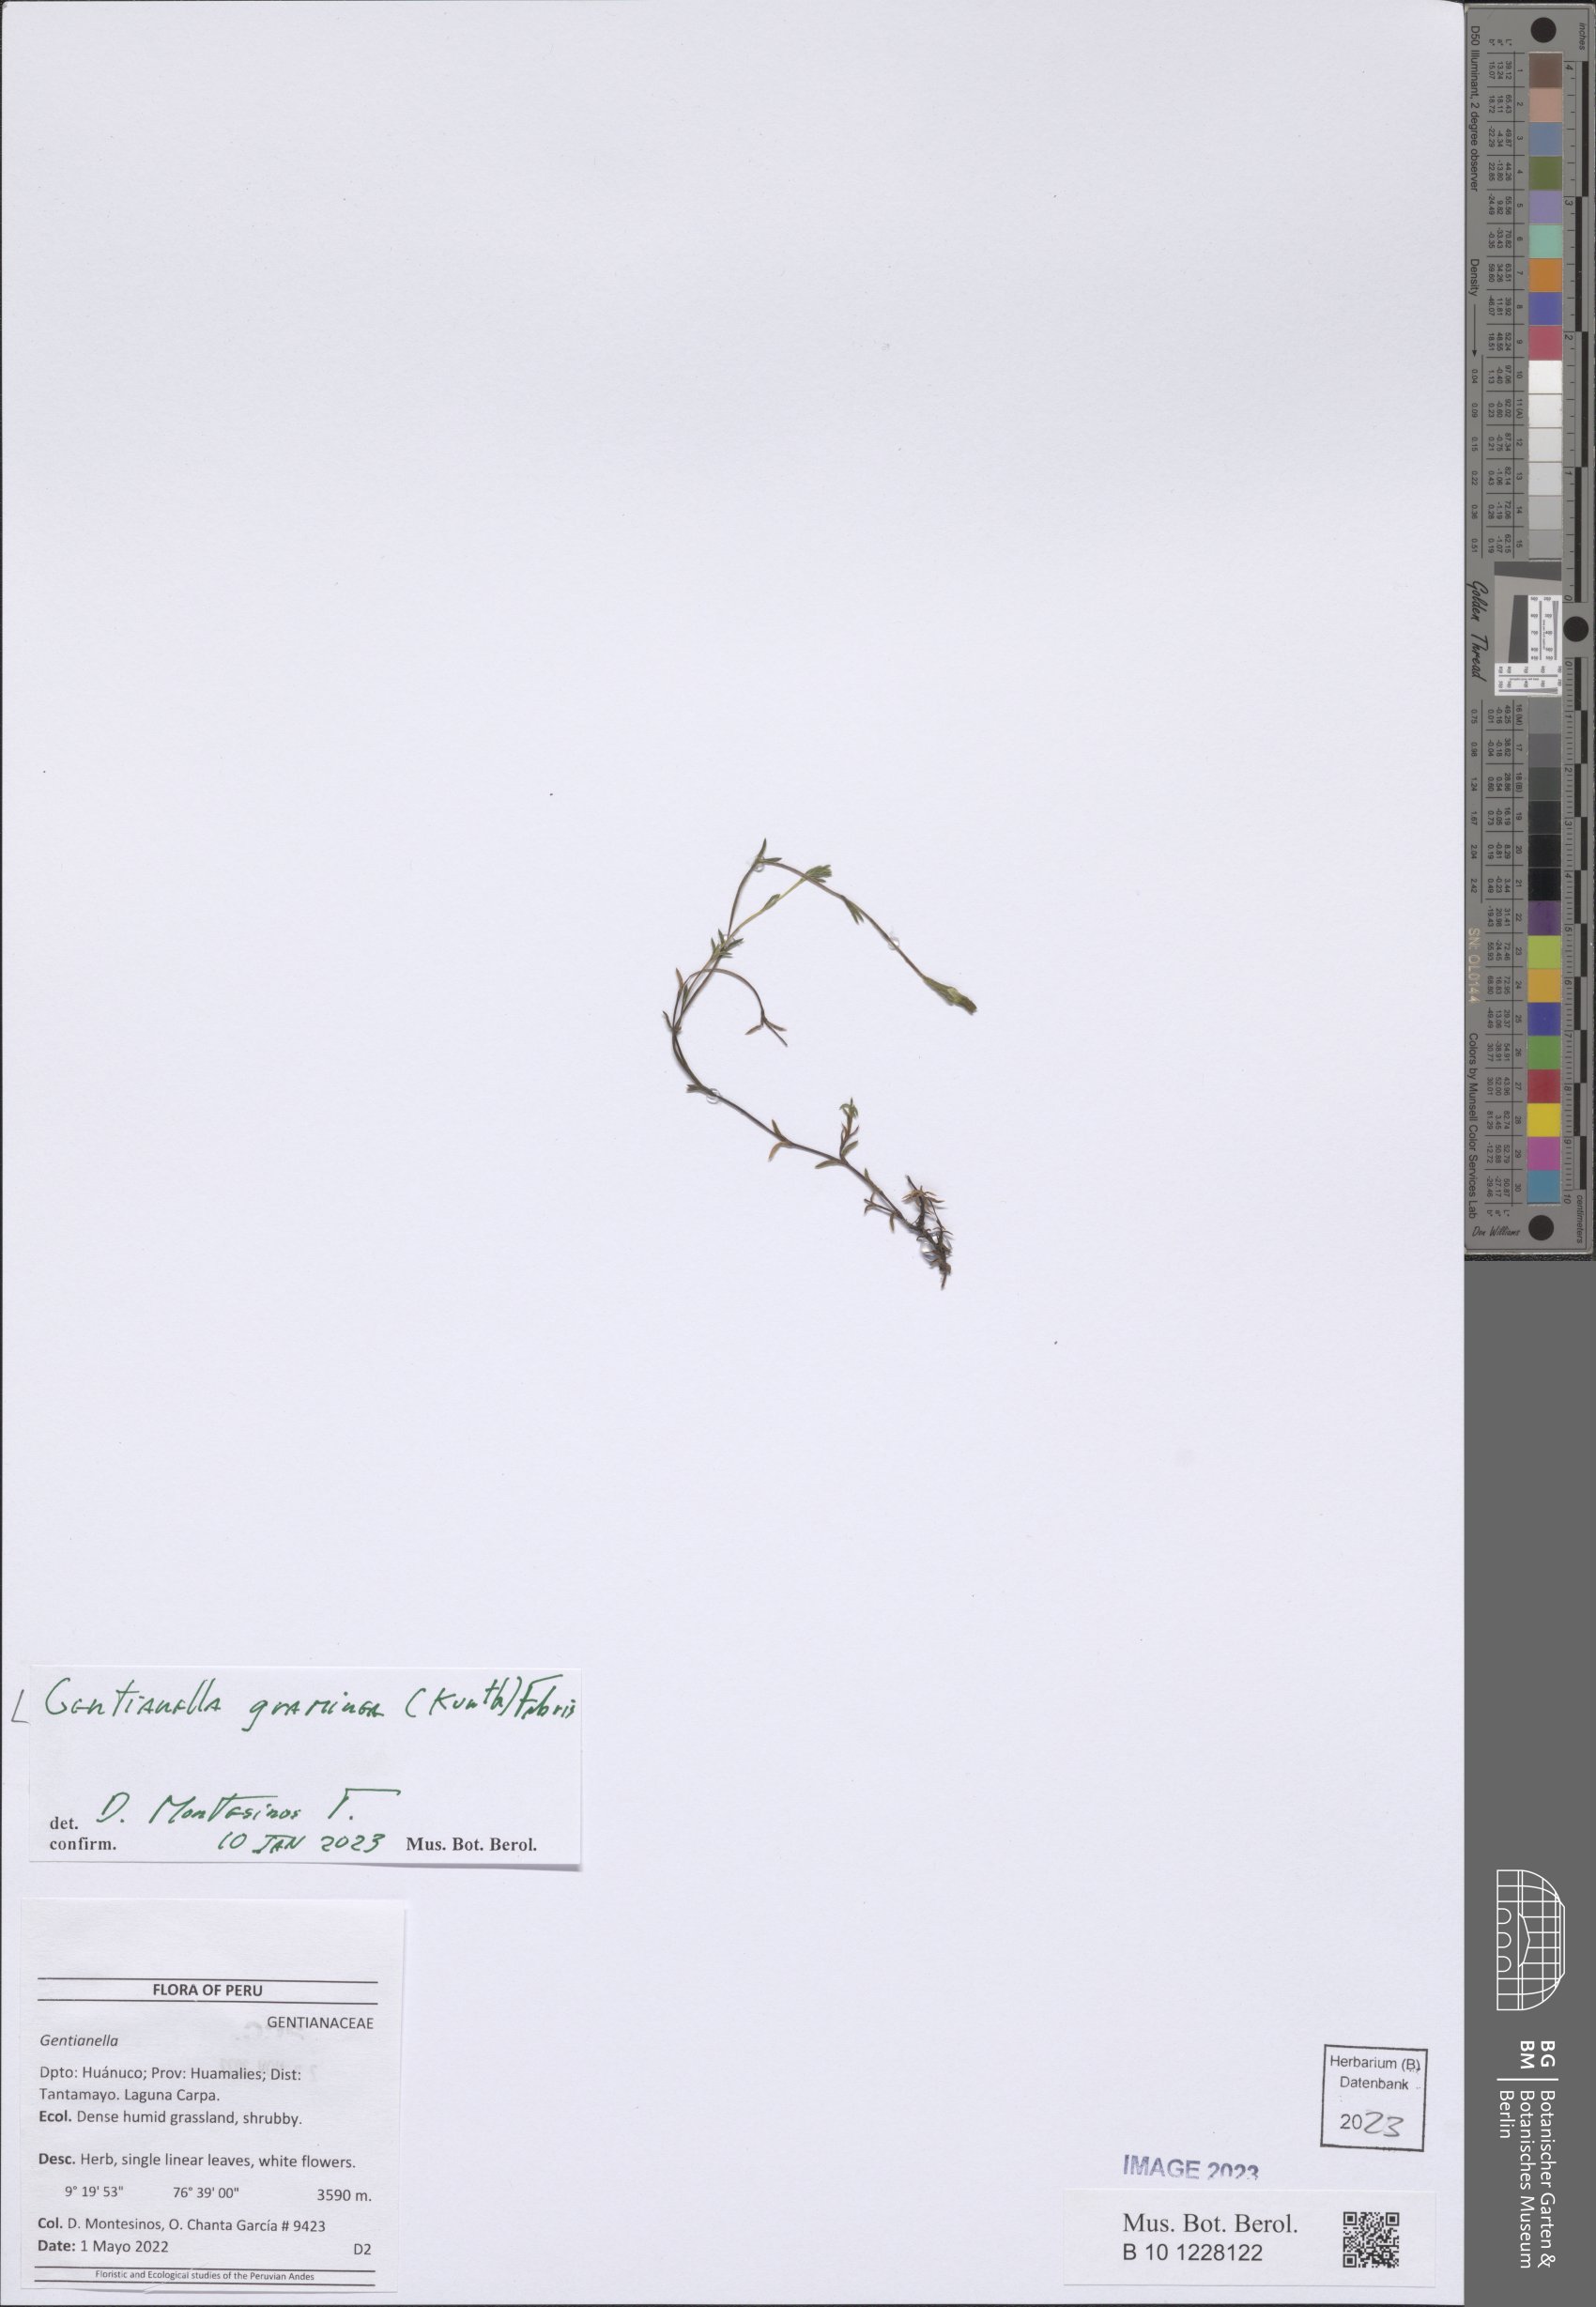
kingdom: Plantae
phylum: Tracheophyta
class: Magnoliopsida
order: Gentianales
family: Gentianaceae
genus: Gentianella
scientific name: Gentianella graminea
